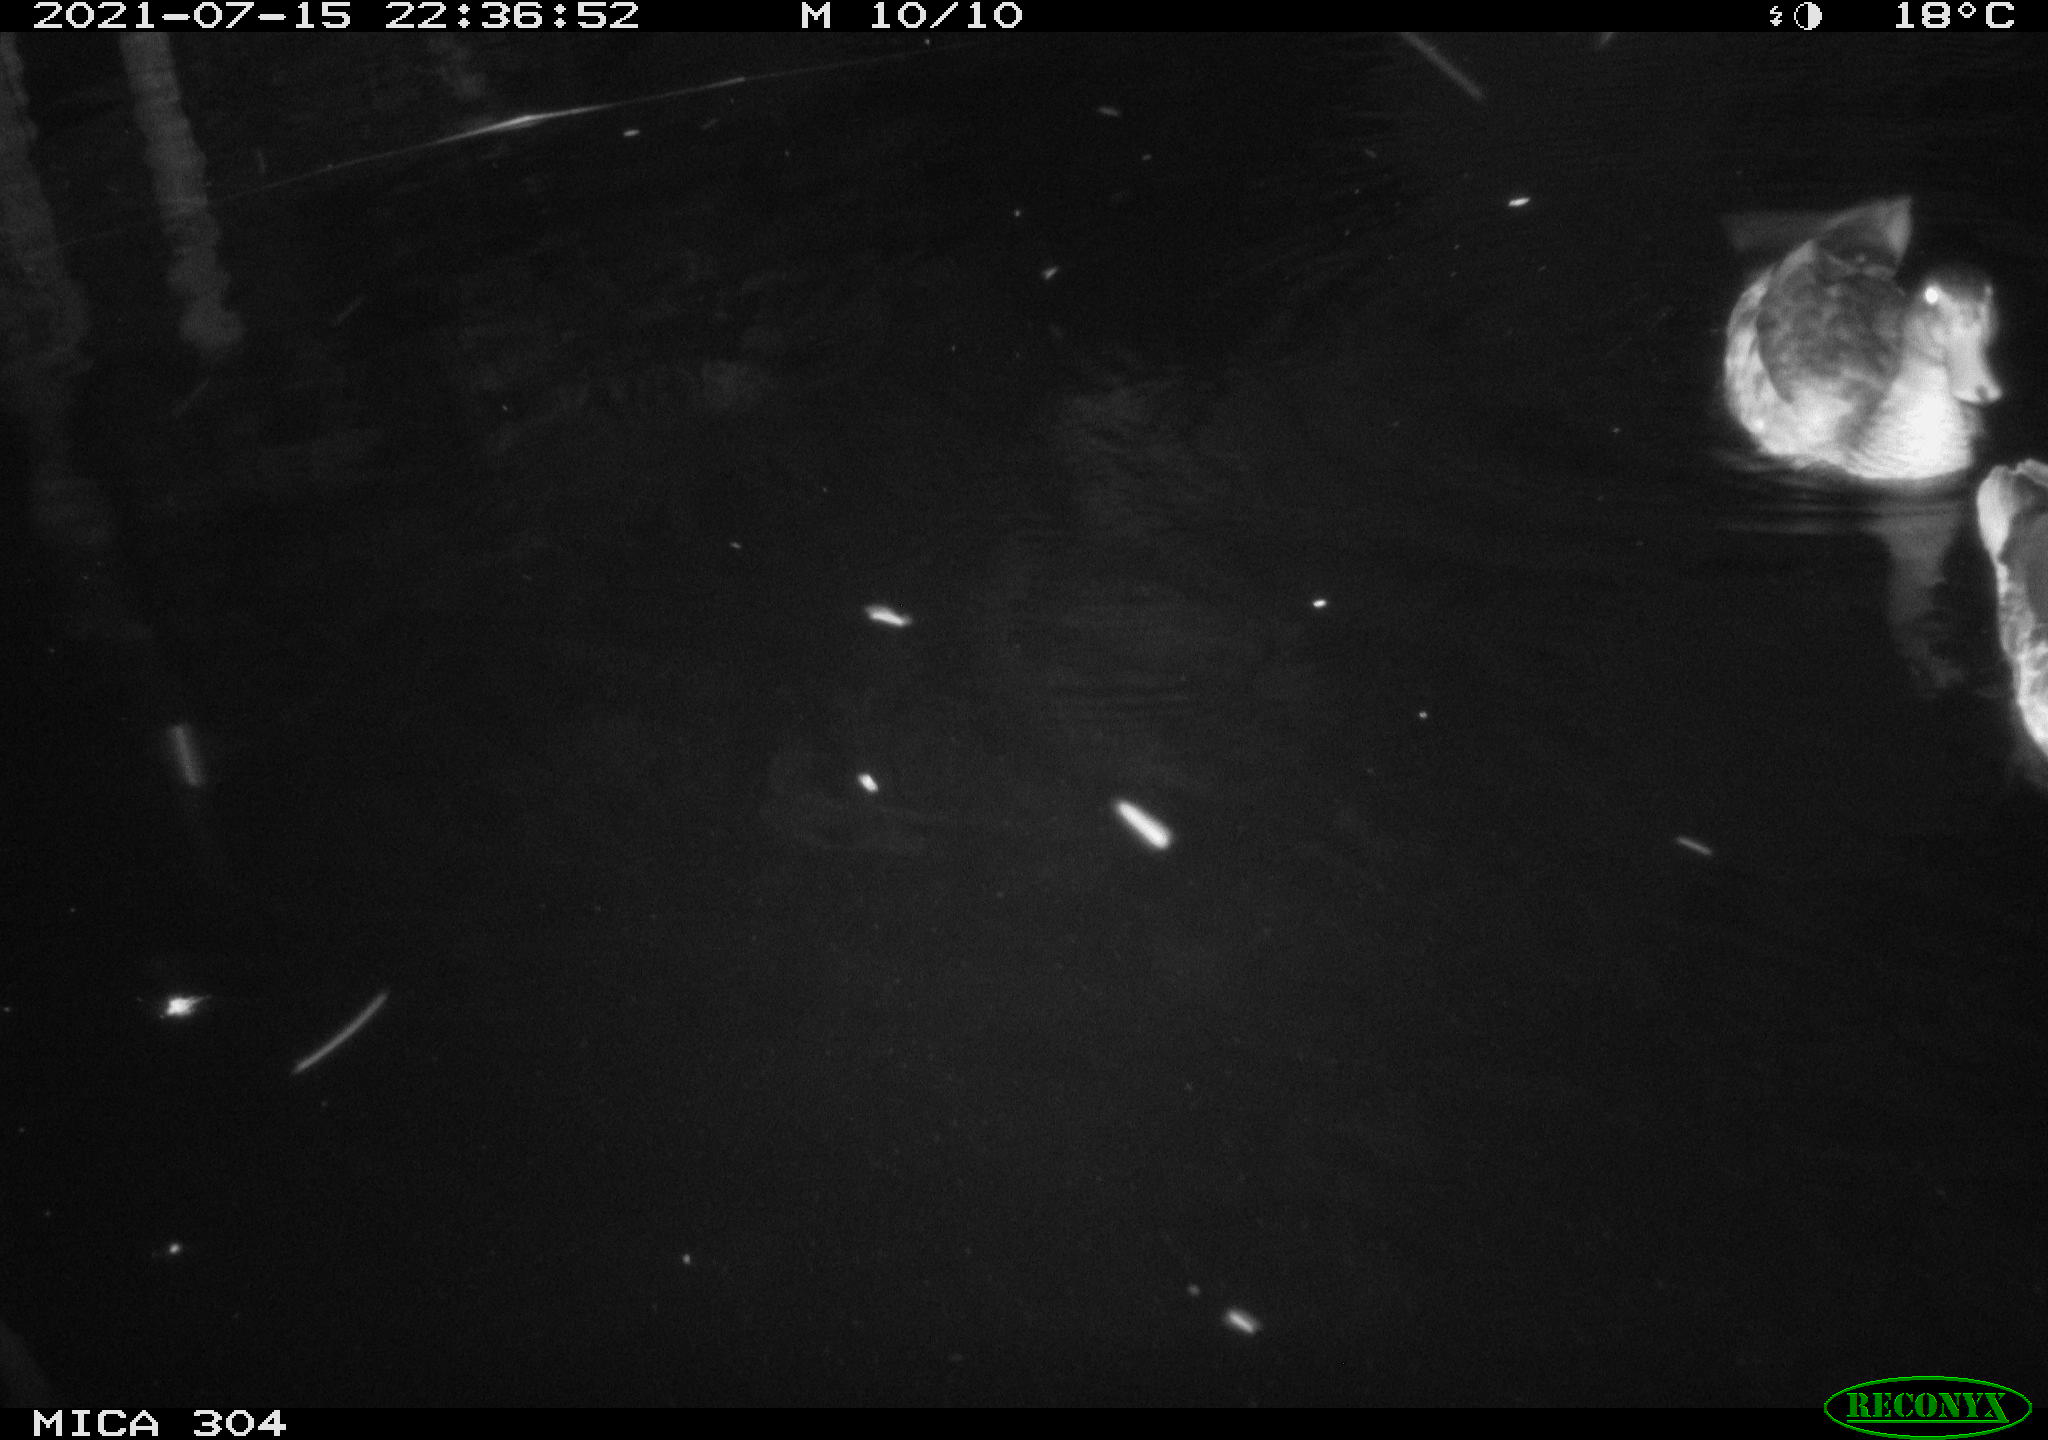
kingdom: Animalia
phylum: Chordata
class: Aves
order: Anseriformes
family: Anatidae
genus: Anas
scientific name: Anas platyrhynchos
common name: Mallard
